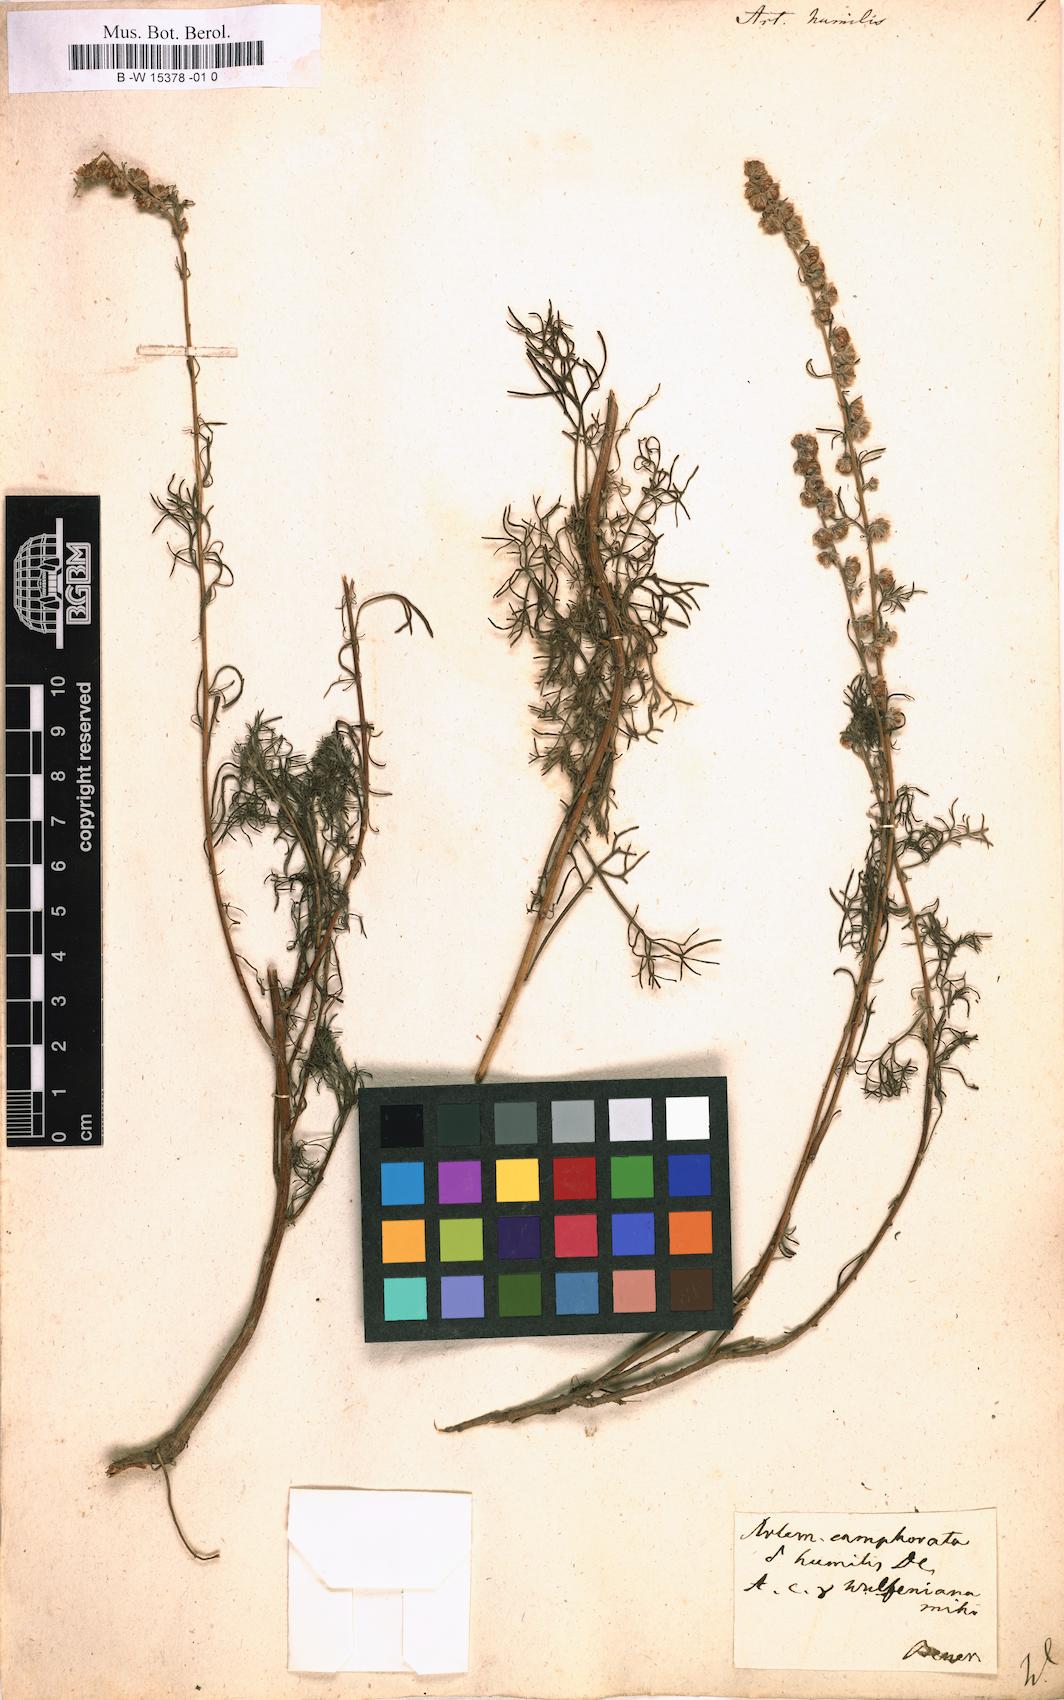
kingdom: Plantae
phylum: Tracheophyta
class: Magnoliopsida
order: Asterales
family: Asteraceae
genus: Artemisia
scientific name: Artemisia abrotanum
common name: Southernwood
